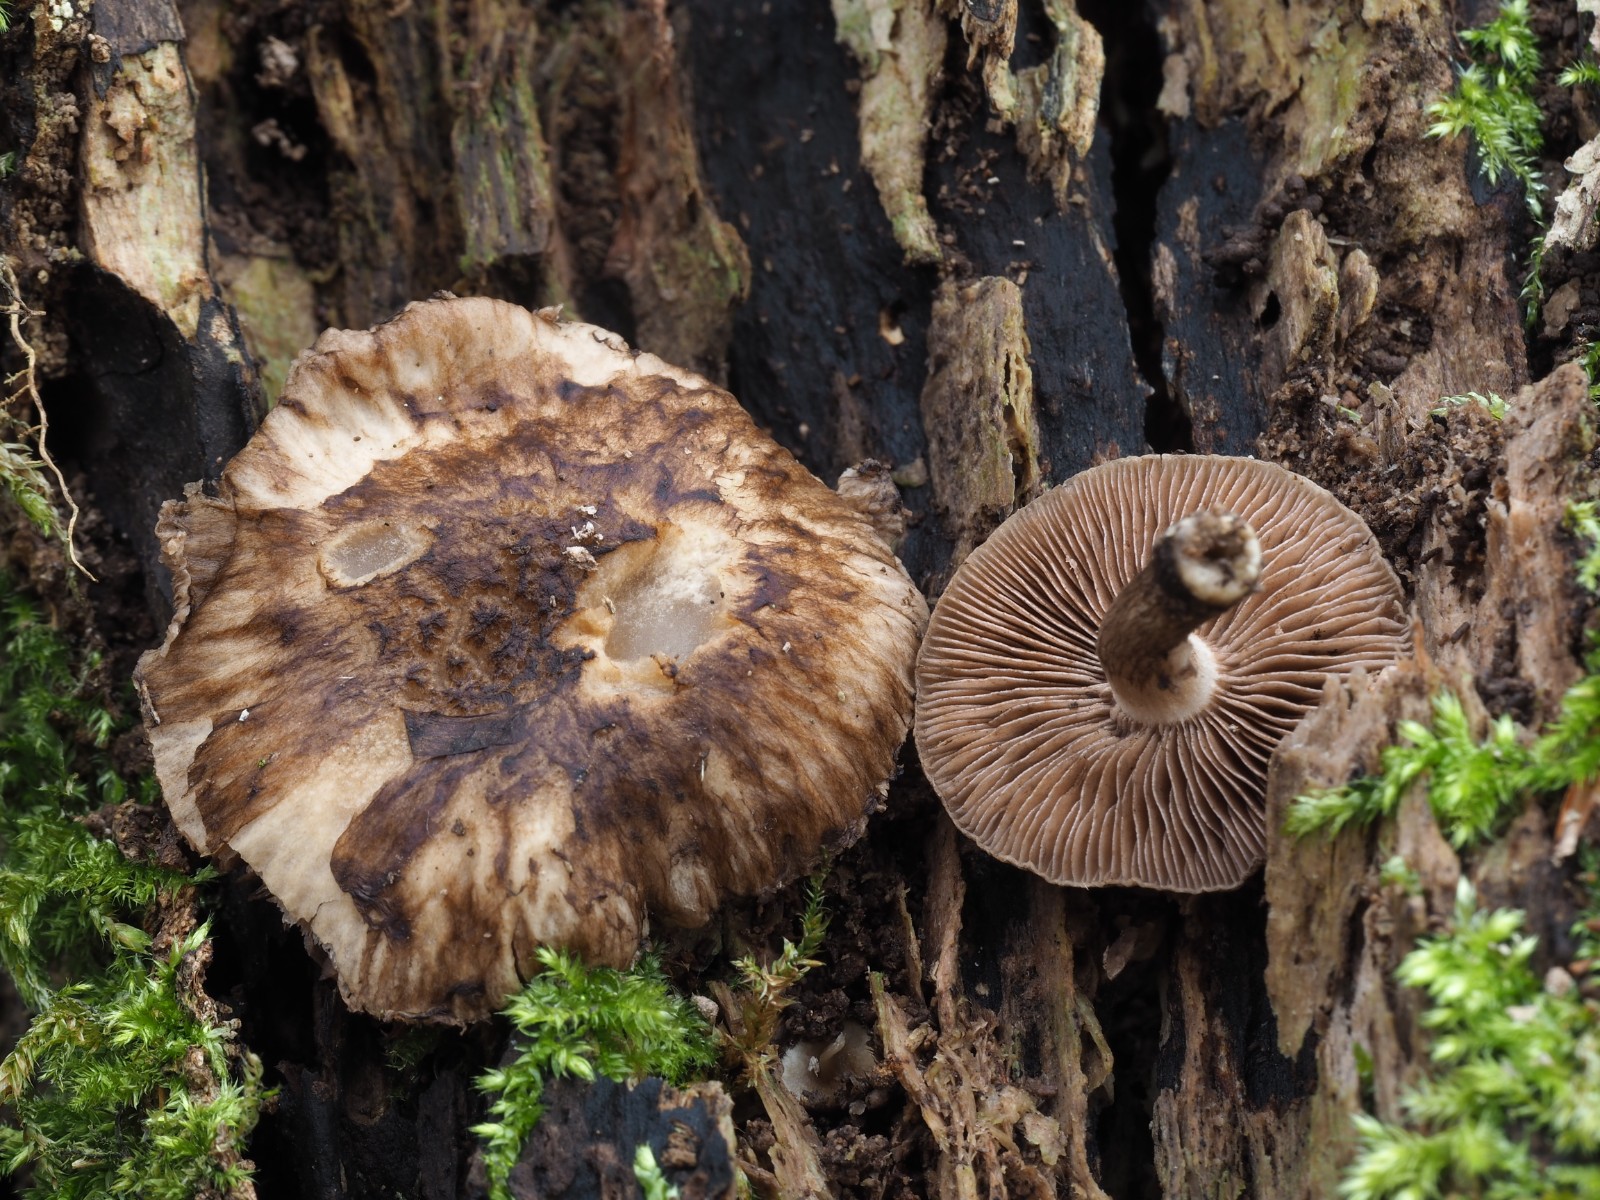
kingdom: Fungi
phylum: Basidiomycota
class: Agaricomycetes
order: Agaricales
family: Psathyrellaceae
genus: Psathyrella
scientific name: Psathyrella maculata
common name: sortskællet mørkhat
